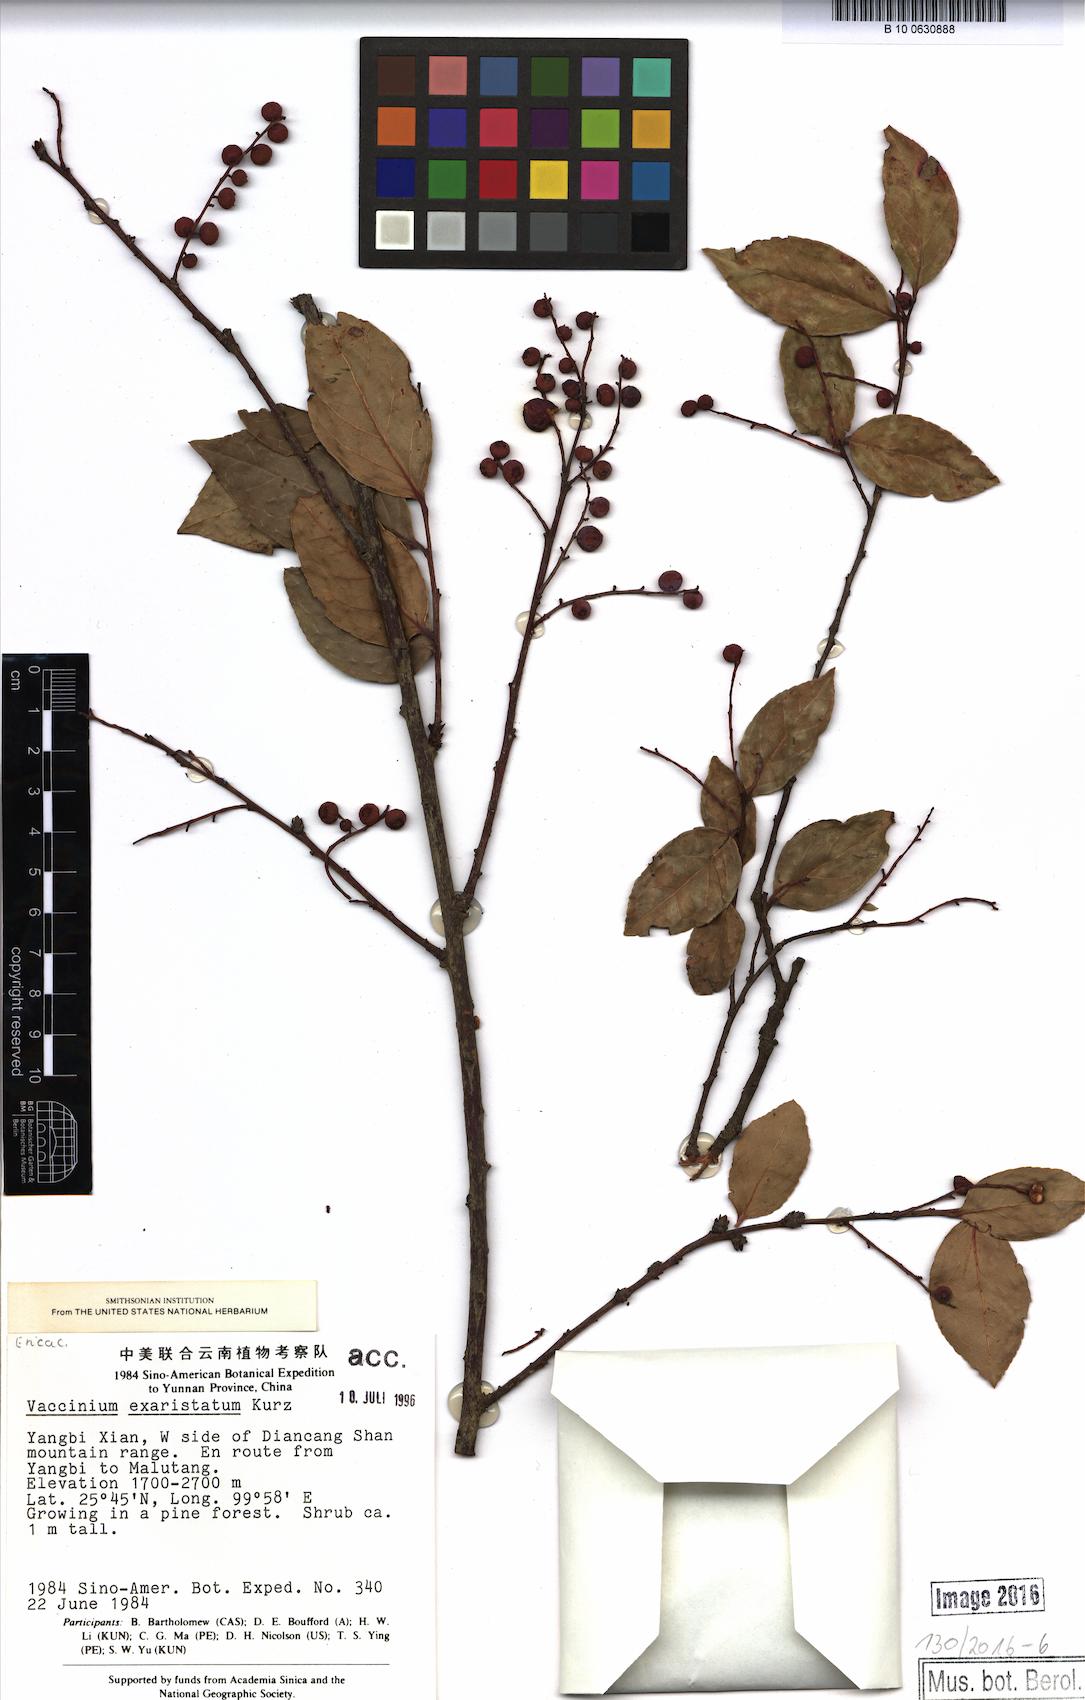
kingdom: Plantae
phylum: Tracheophyta
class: Magnoliopsida
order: Ericales
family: Ericaceae
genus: Vaccinium
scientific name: Vaccinium exaristatum
